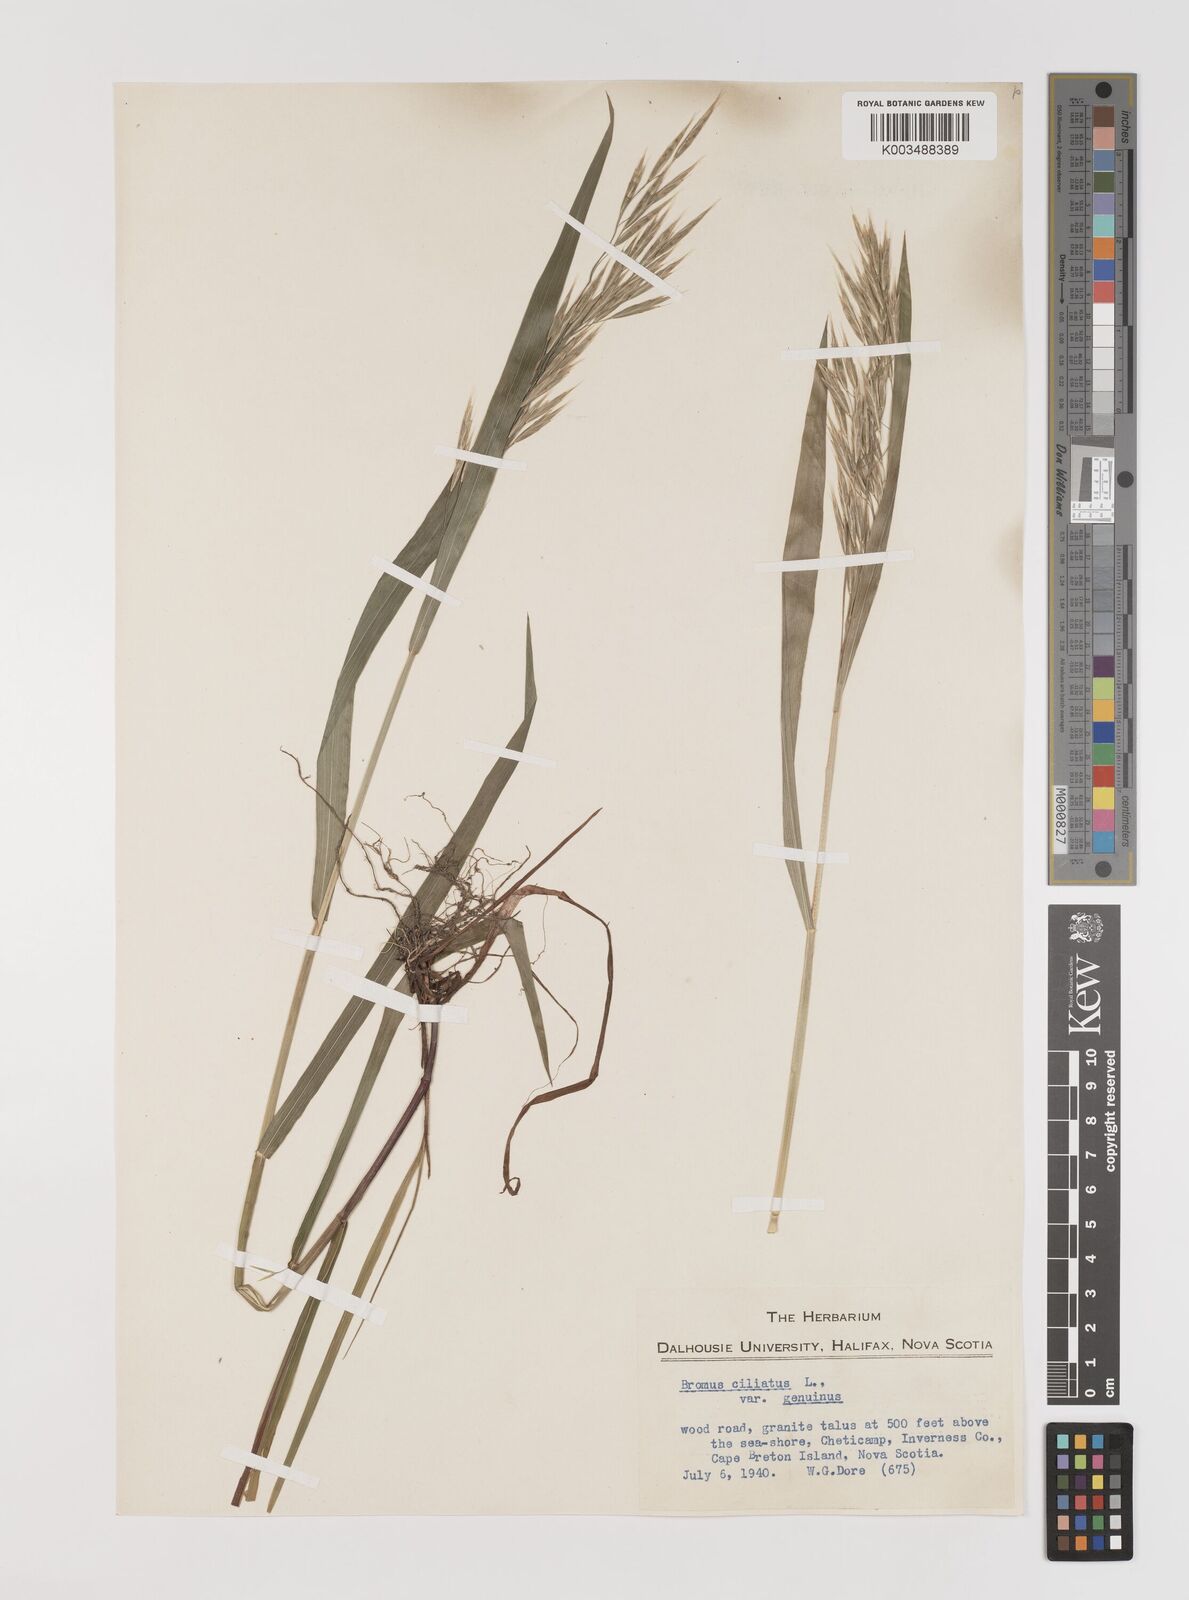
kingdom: Plantae
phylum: Tracheophyta
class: Liliopsida
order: Poales
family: Poaceae
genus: Bromus
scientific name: Bromus ciliatus
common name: Fringe brome
